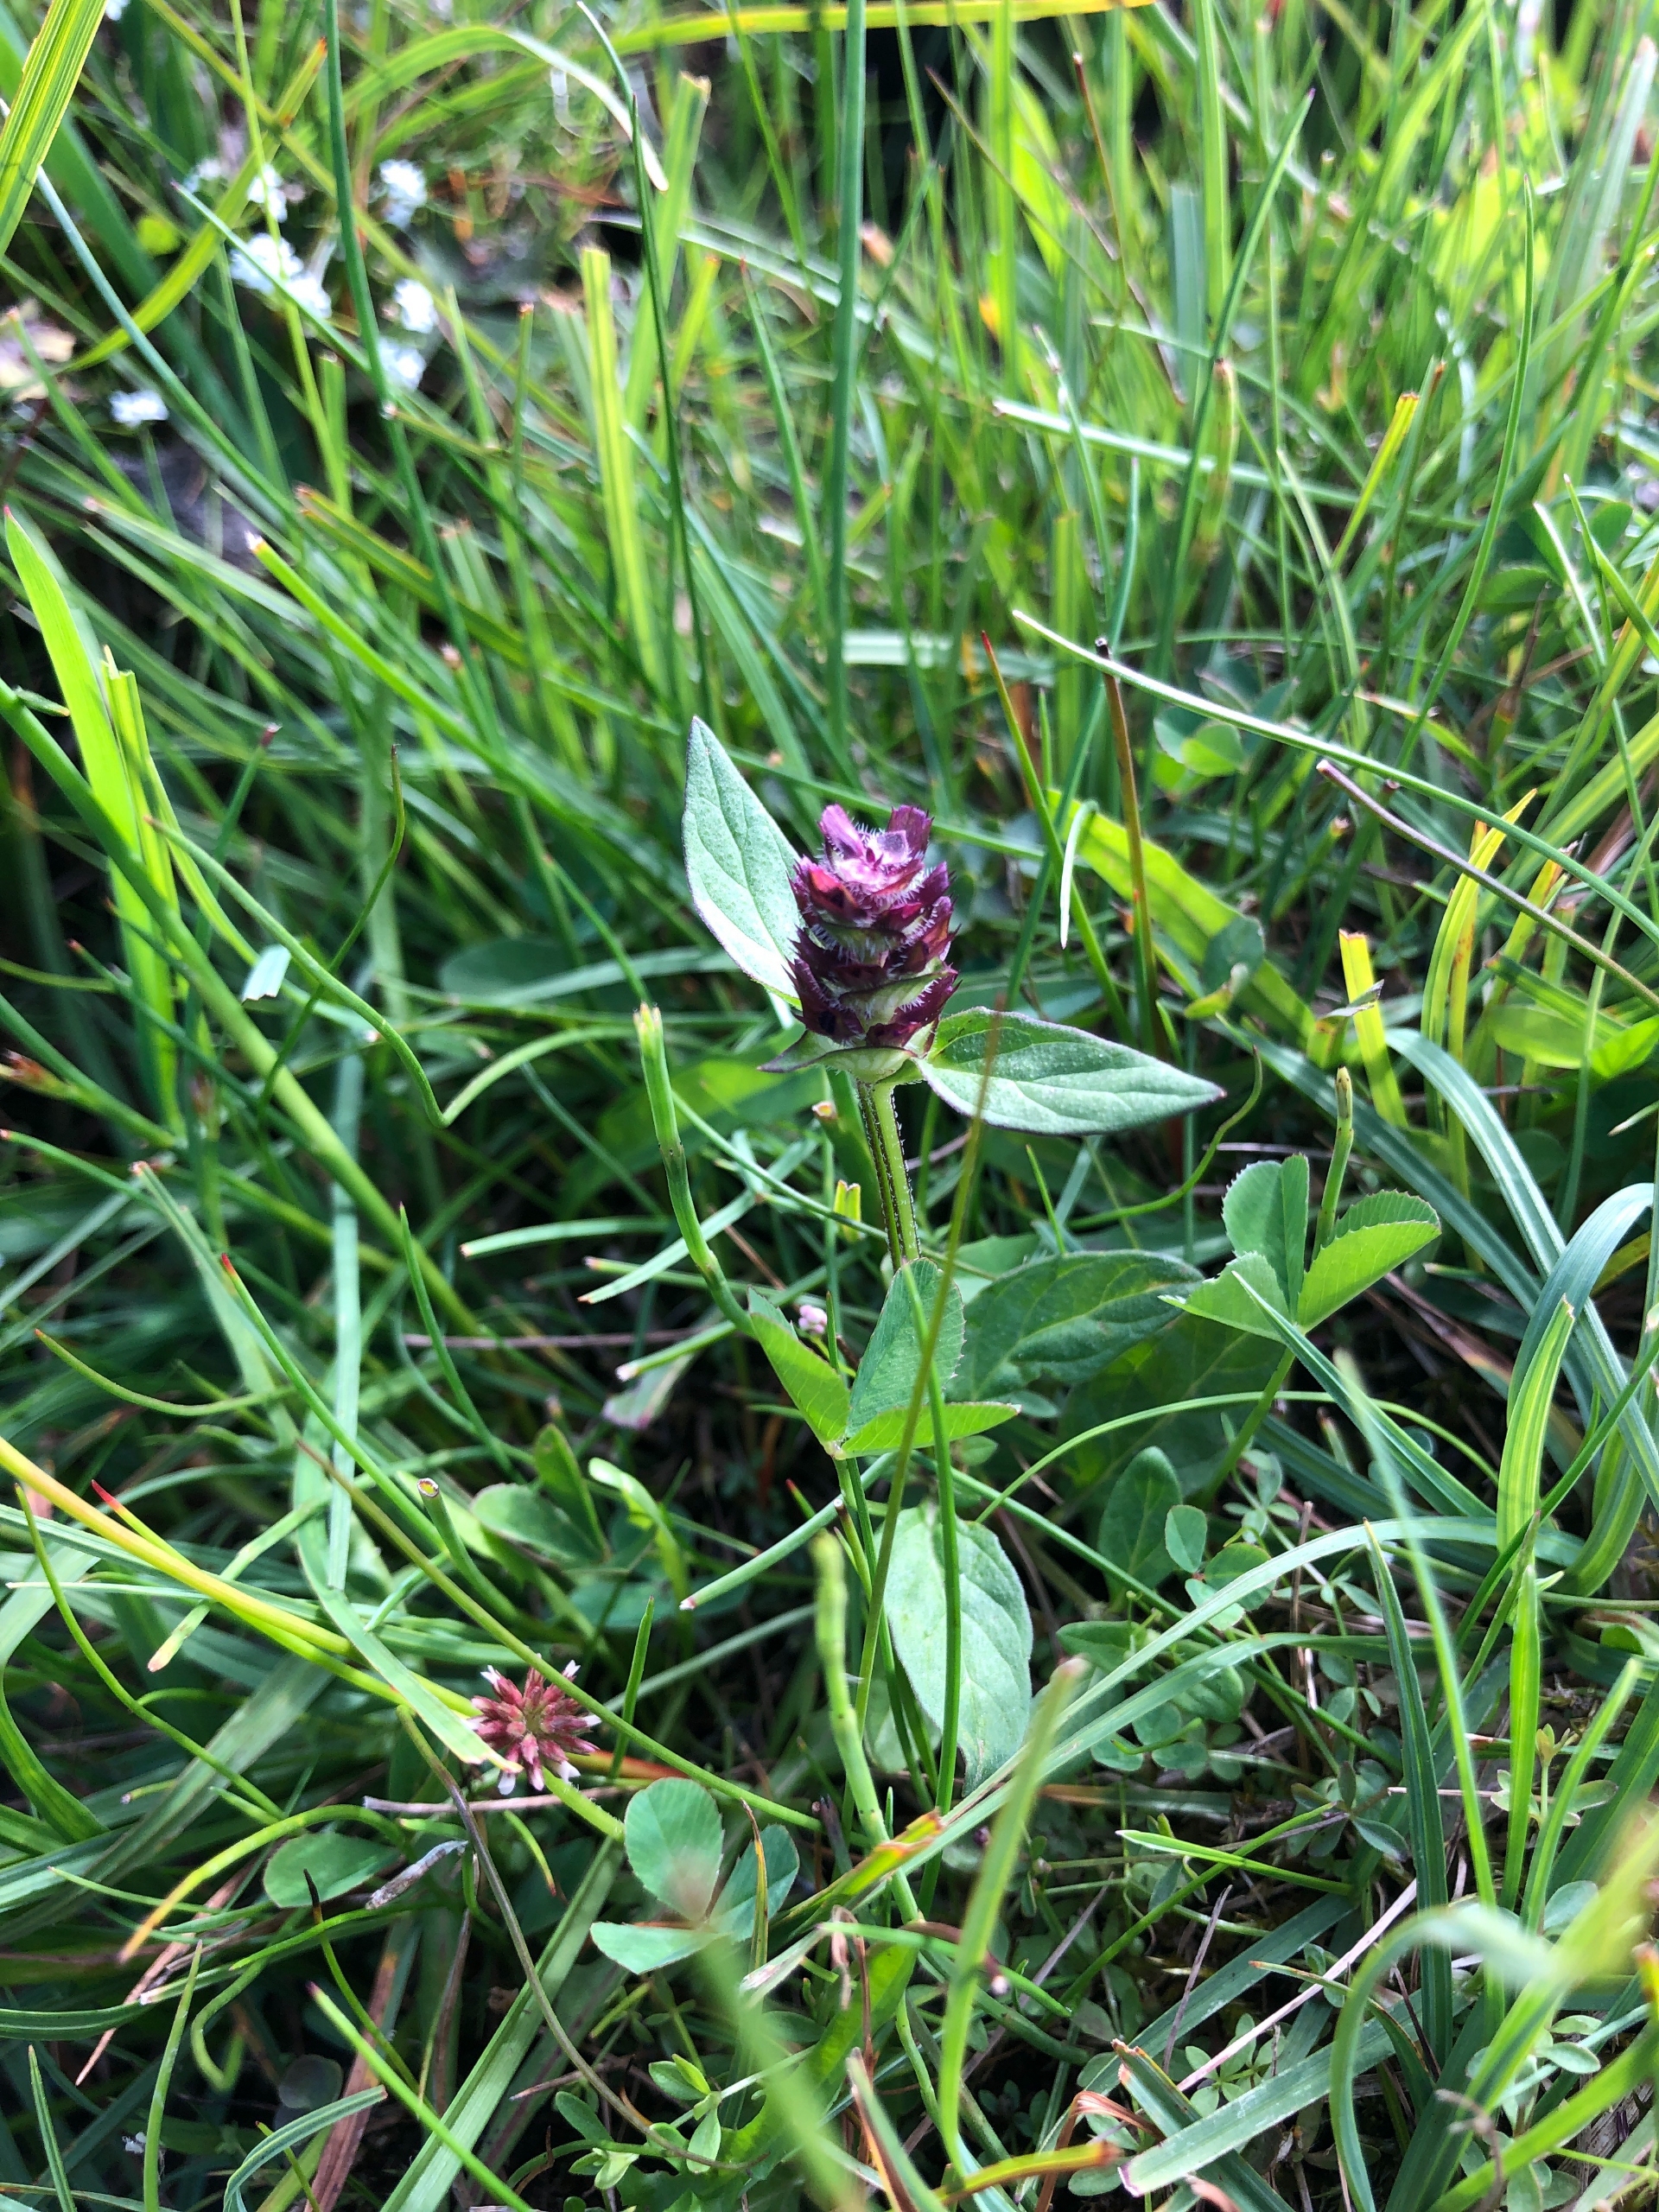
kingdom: Plantae
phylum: Tracheophyta
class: Magnoliopsida
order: Lamiales
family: Lamiaceae
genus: Prunella
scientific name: Prunella vulgaris
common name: Almindelig brunelle
